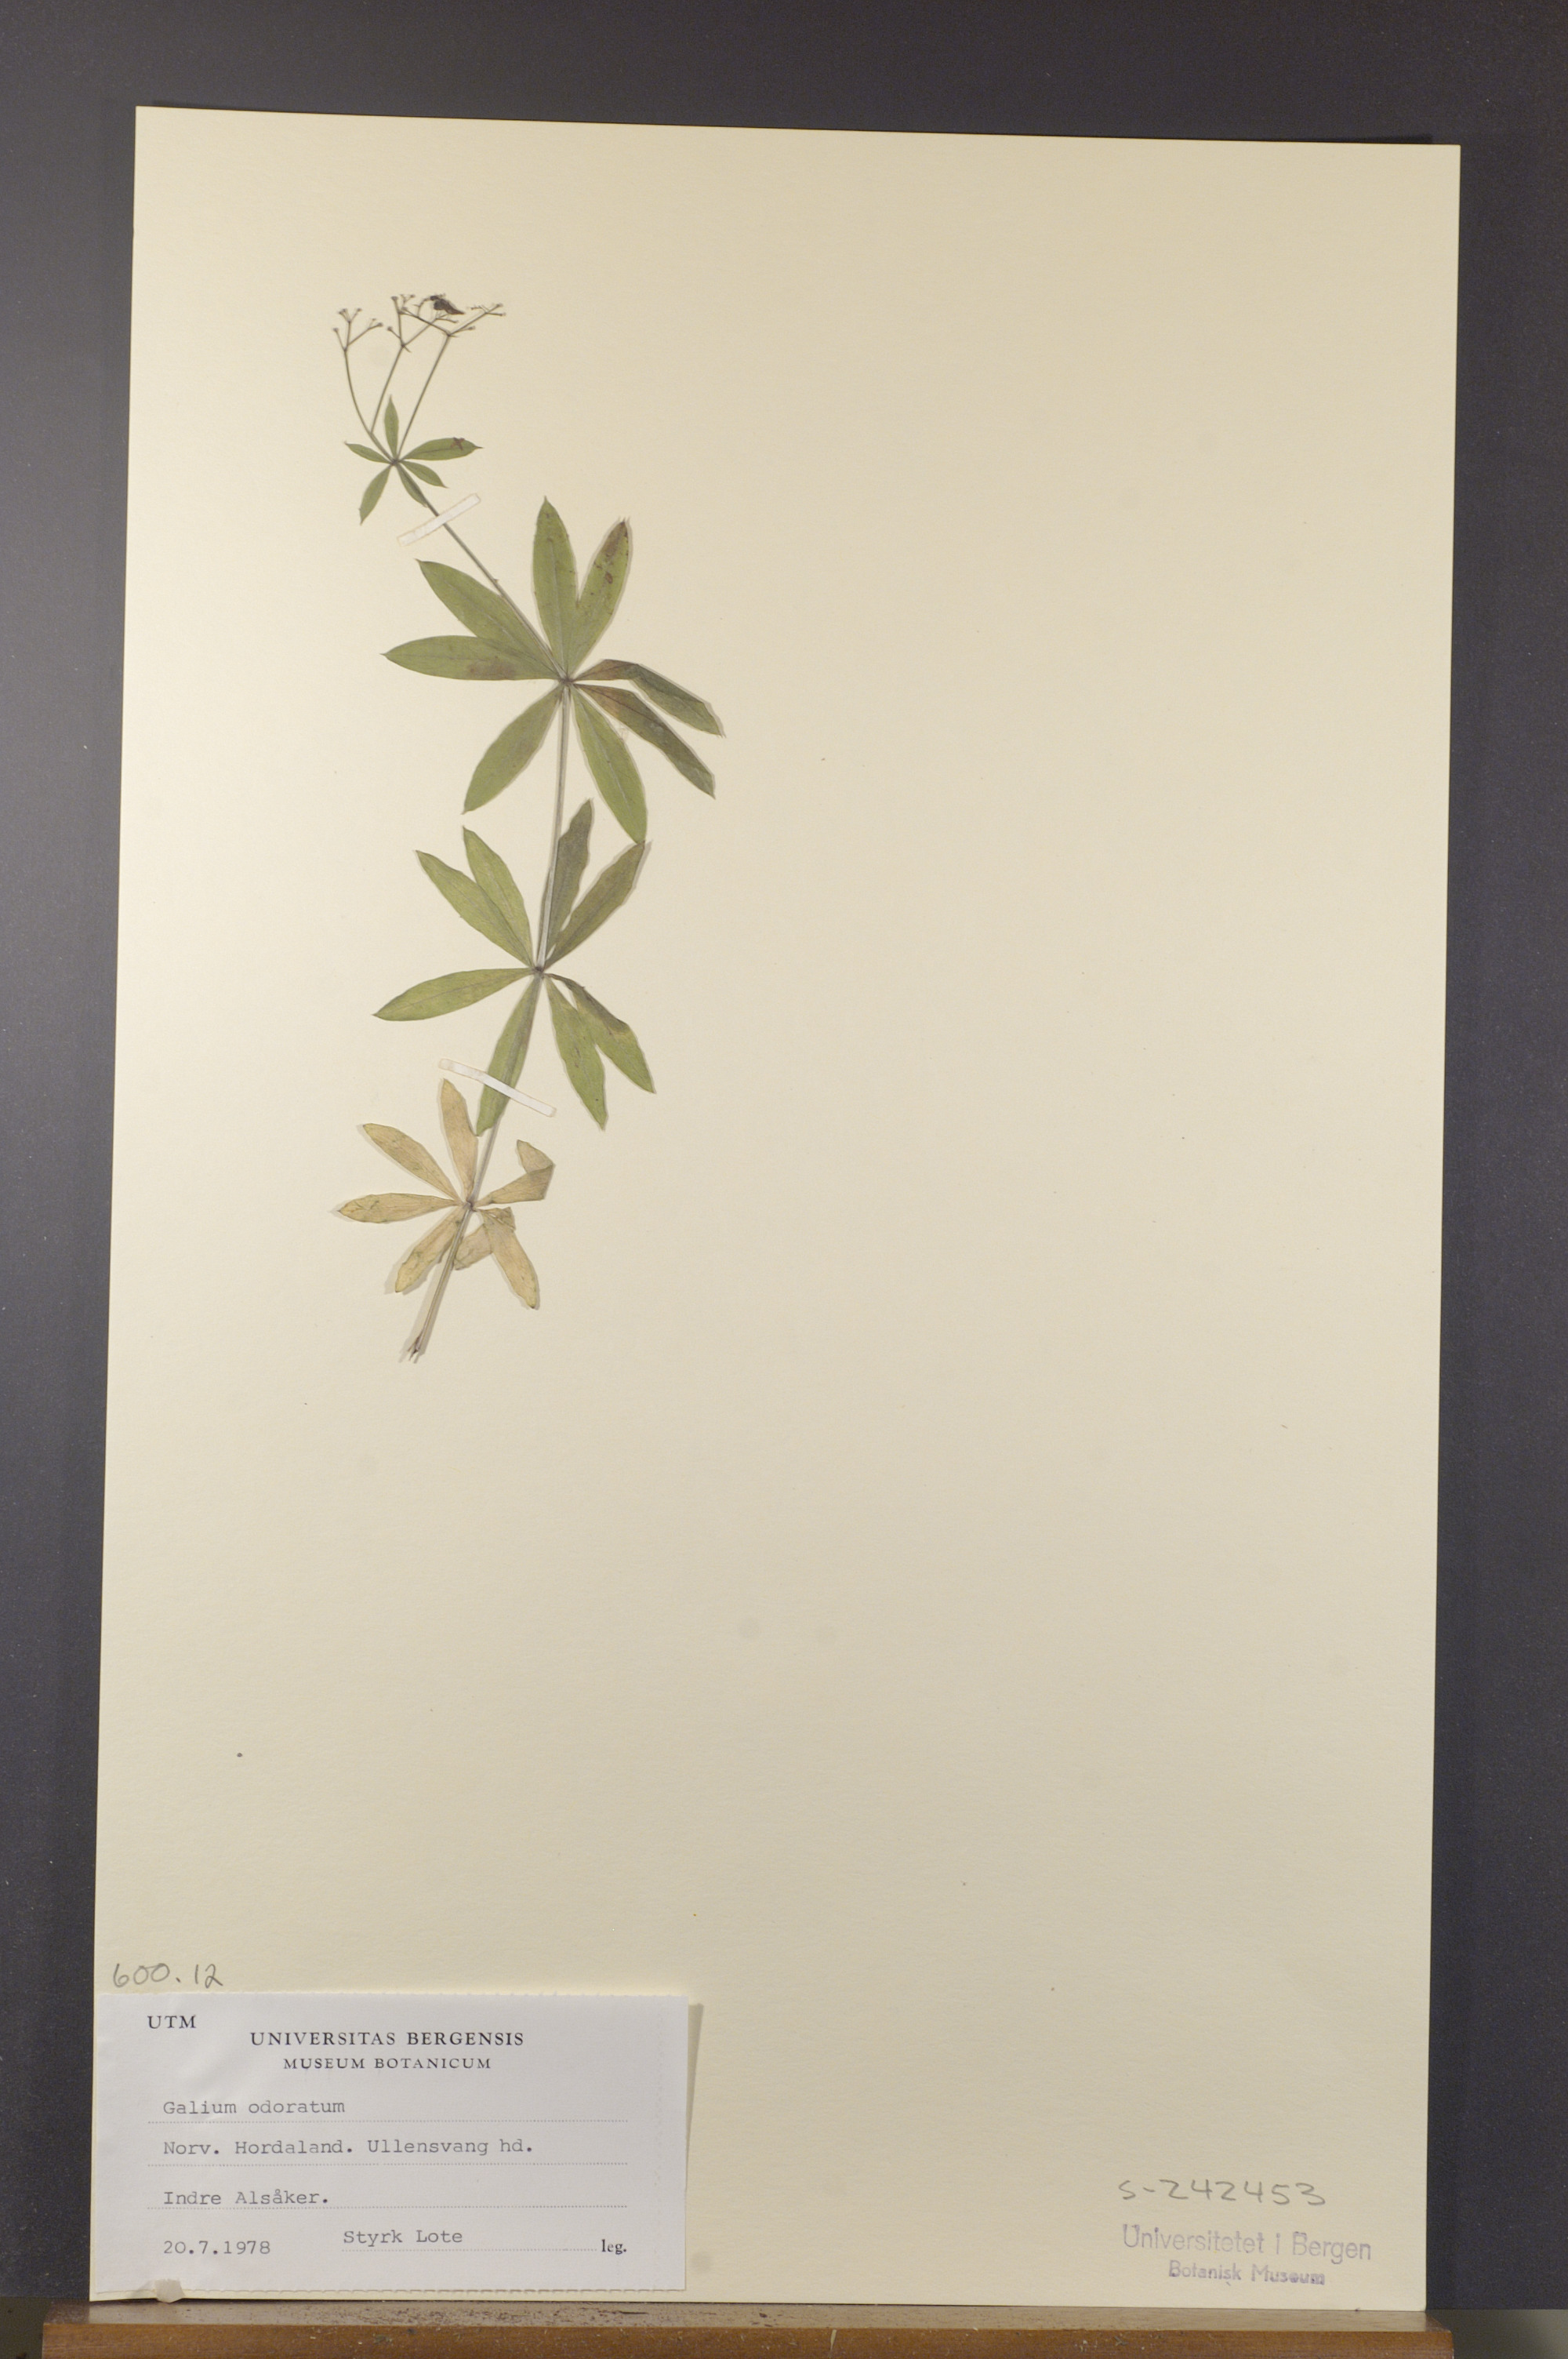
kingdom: Plantae
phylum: Tracheophyta
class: Magnoliopsida
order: Gentianales
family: Rubiaceae
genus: Galium
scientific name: Galium odoratum
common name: Sweet woodruff
